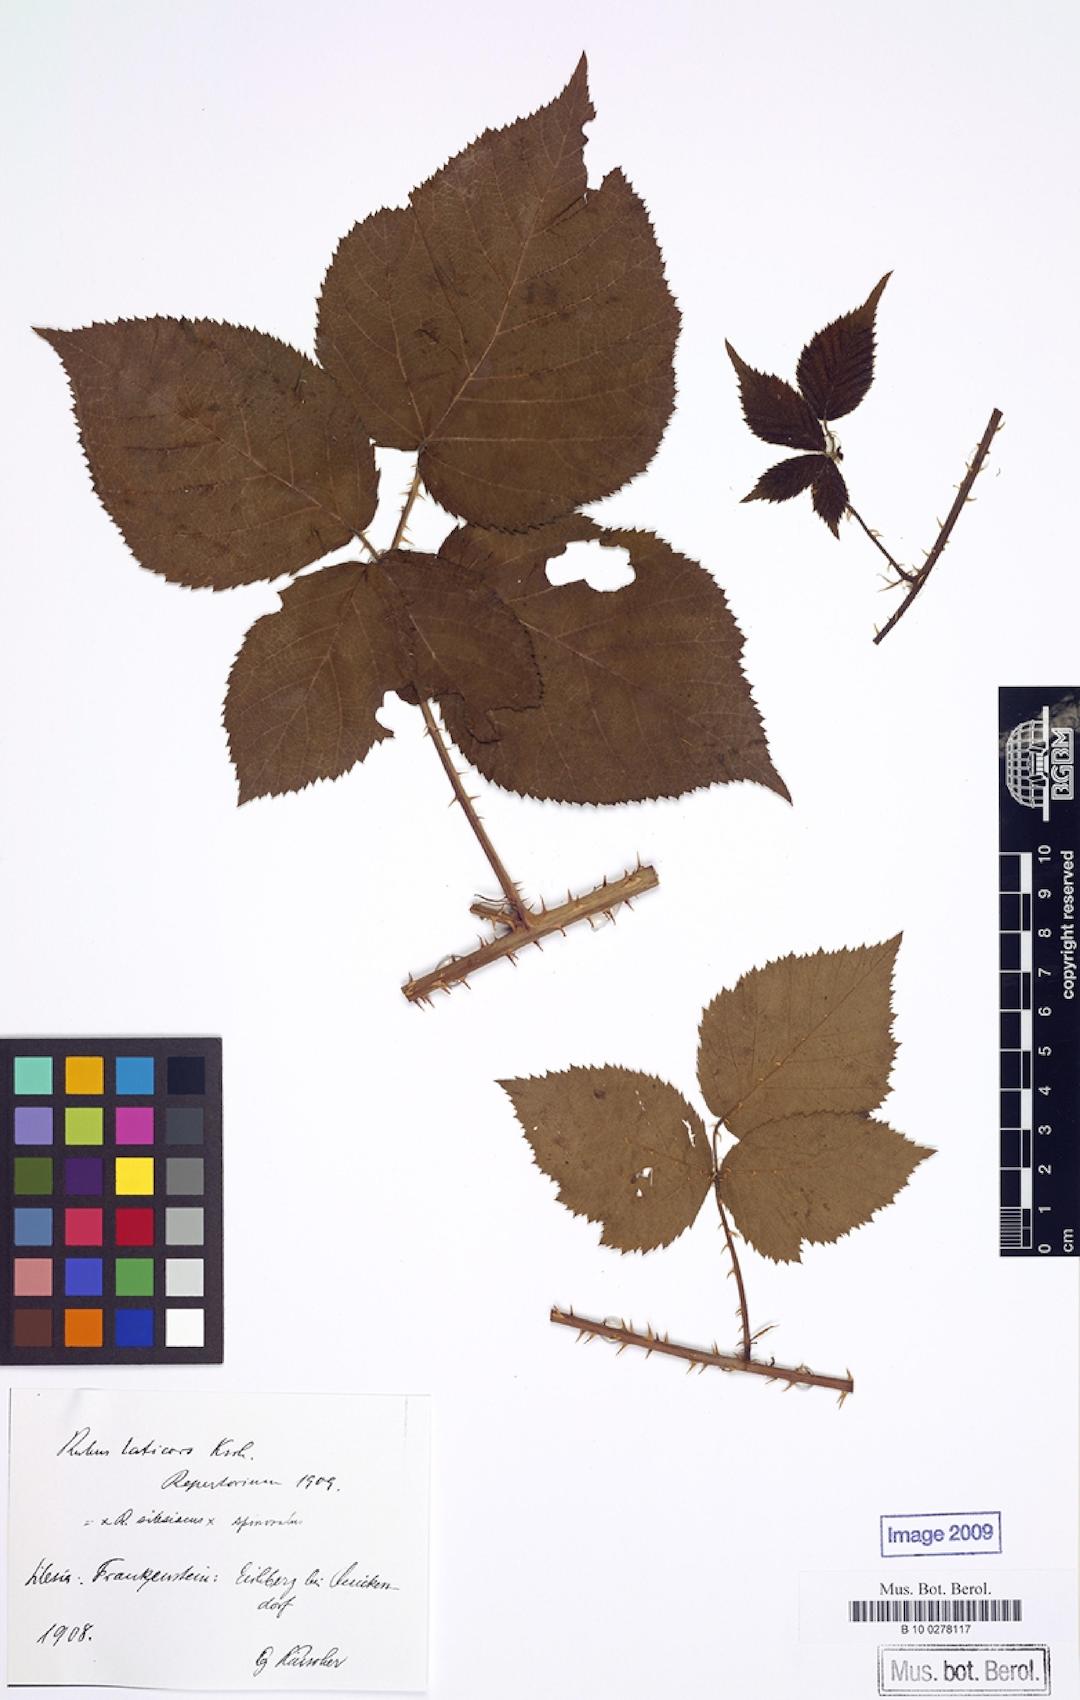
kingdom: Plantae
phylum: Tracheophyta
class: Magnoliopsida
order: Rosales
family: Rosaceae
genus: Rubus
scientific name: Rubus laticors
